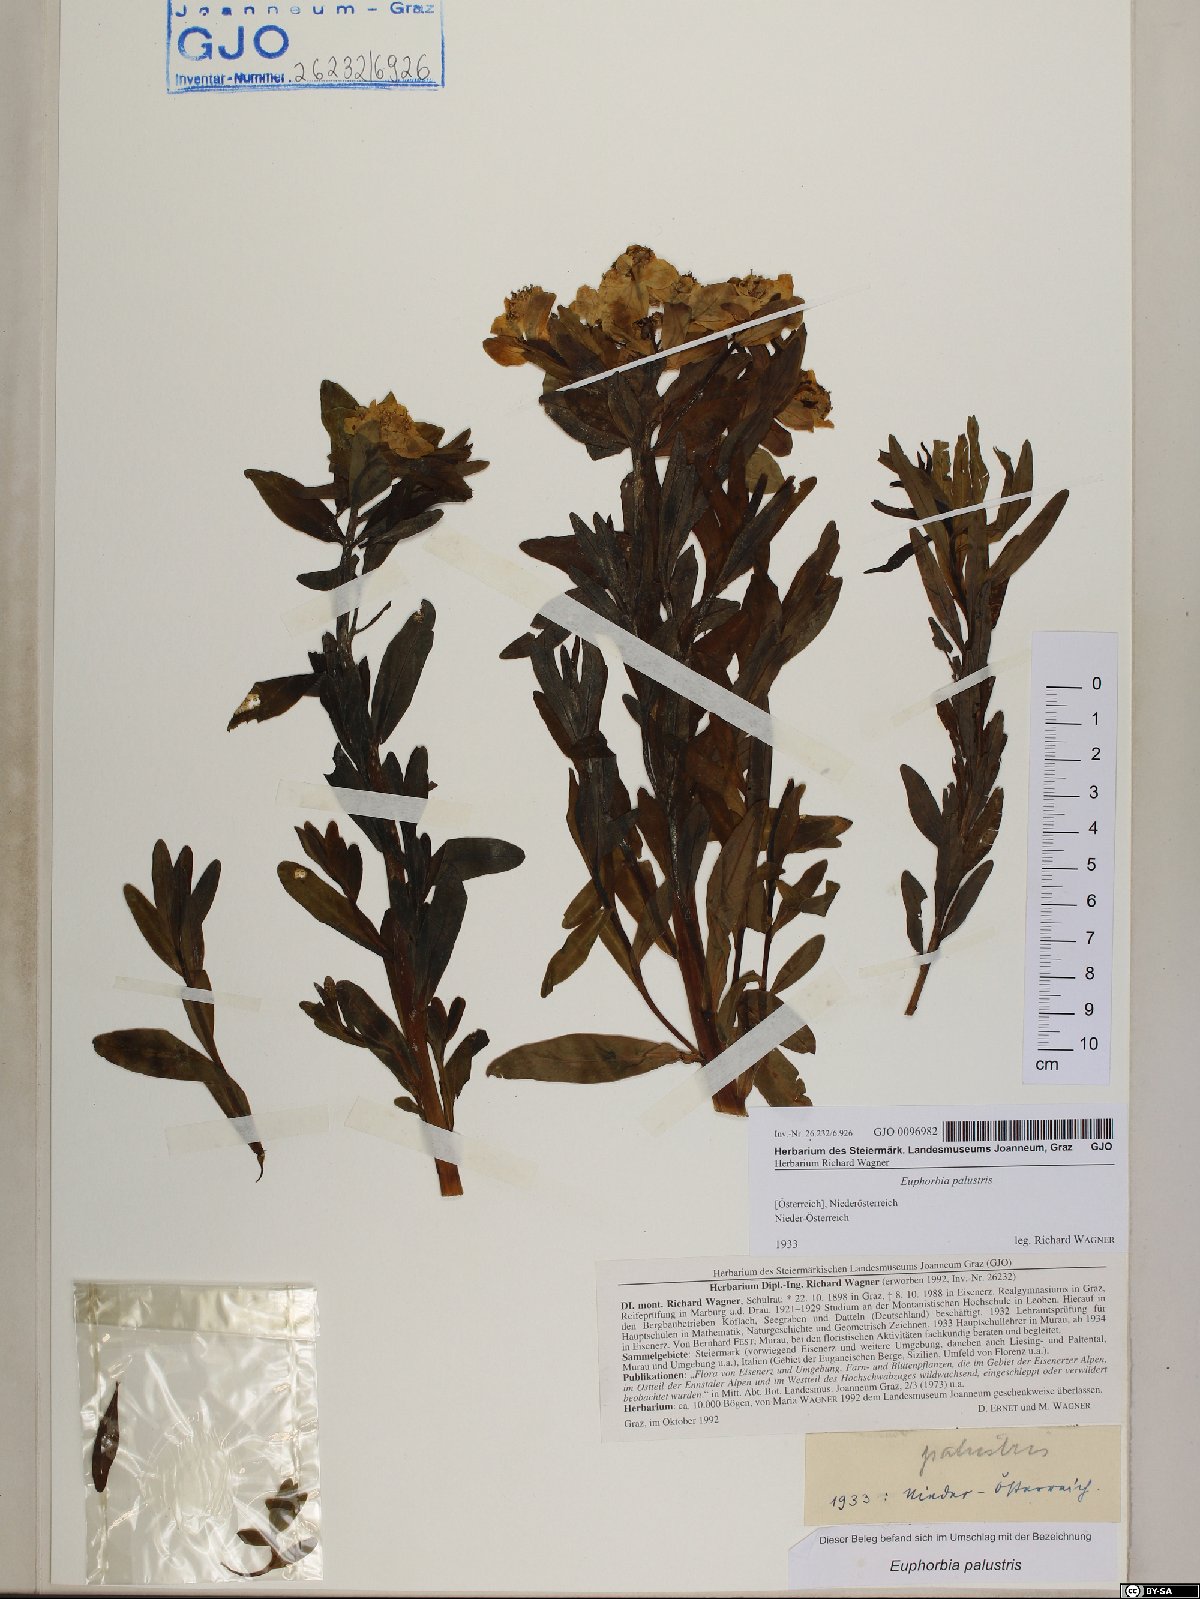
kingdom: Plantae
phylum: Tracheophyta
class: Magnoliopsida
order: Malpighiales
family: Euphorbiaceae
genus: Euphorbia
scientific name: Euphorbia palustris
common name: Marsh spurge
